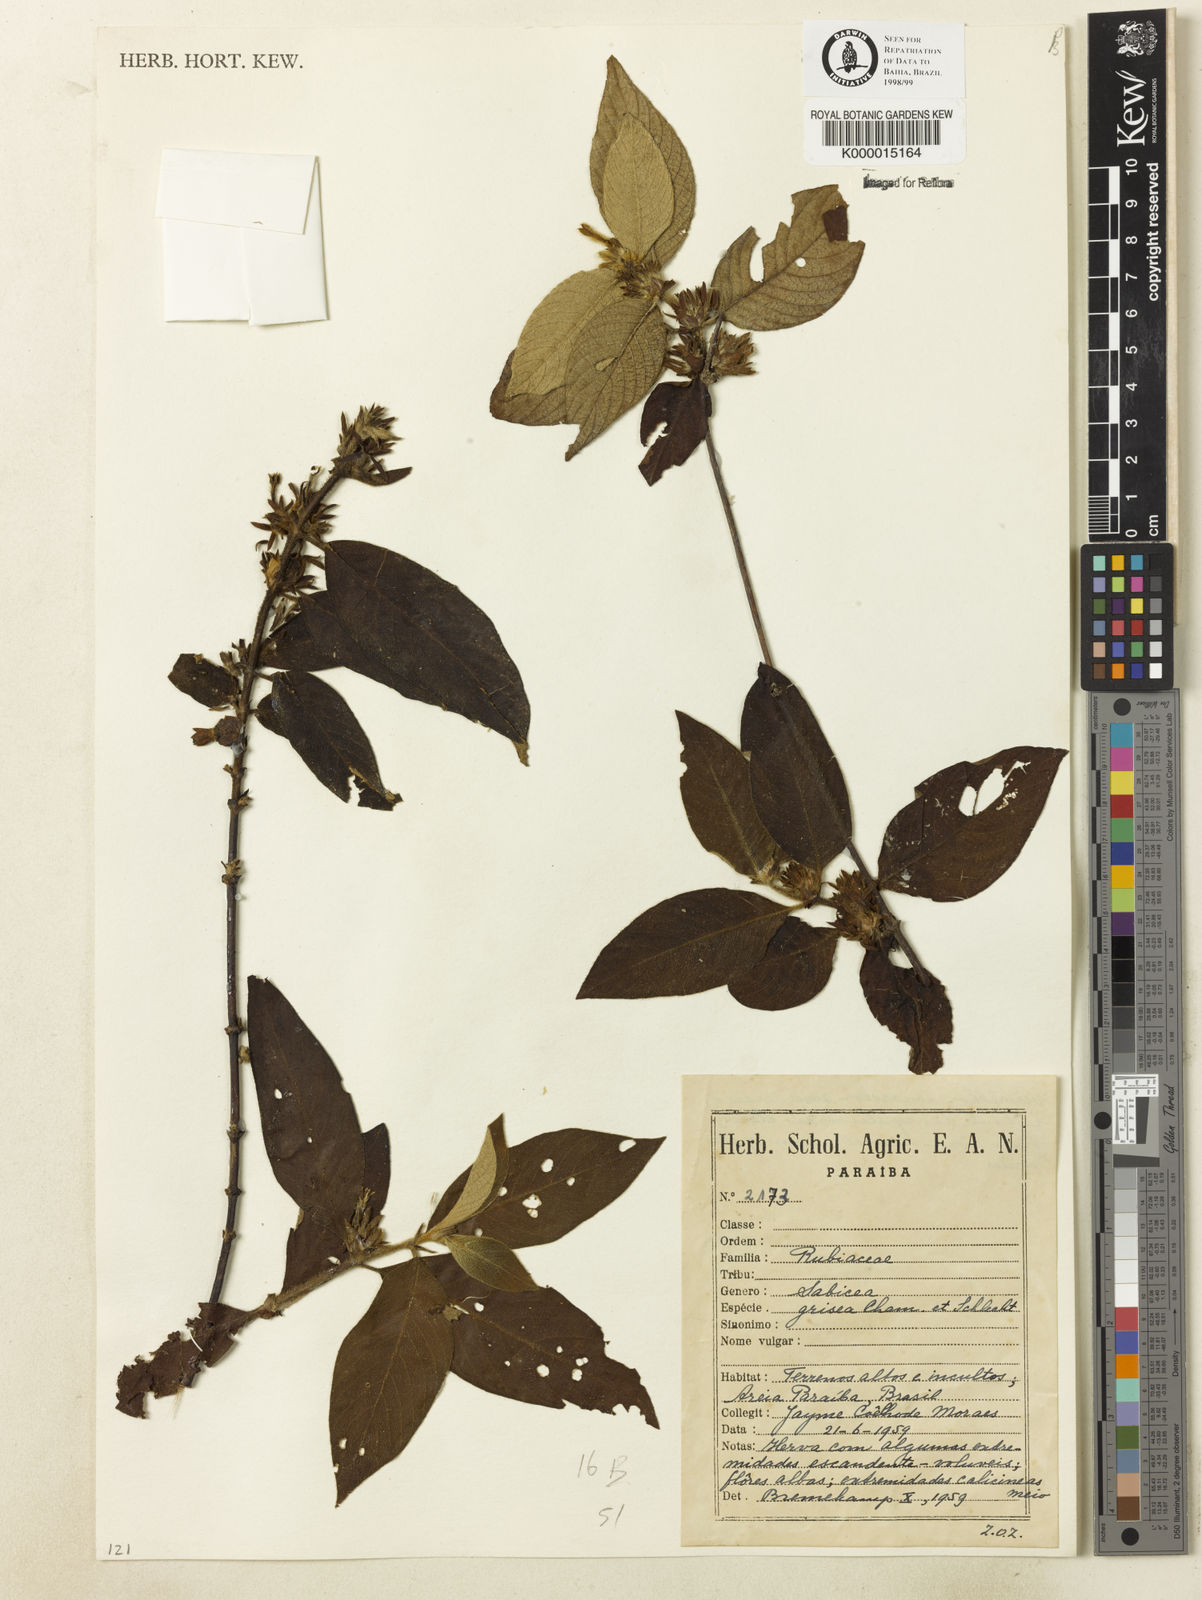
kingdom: Plantae
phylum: Tracheophyta
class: Magnoliopsida
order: Gentianales
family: Rubiaceae
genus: Sabicea
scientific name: Sabicea grisea
